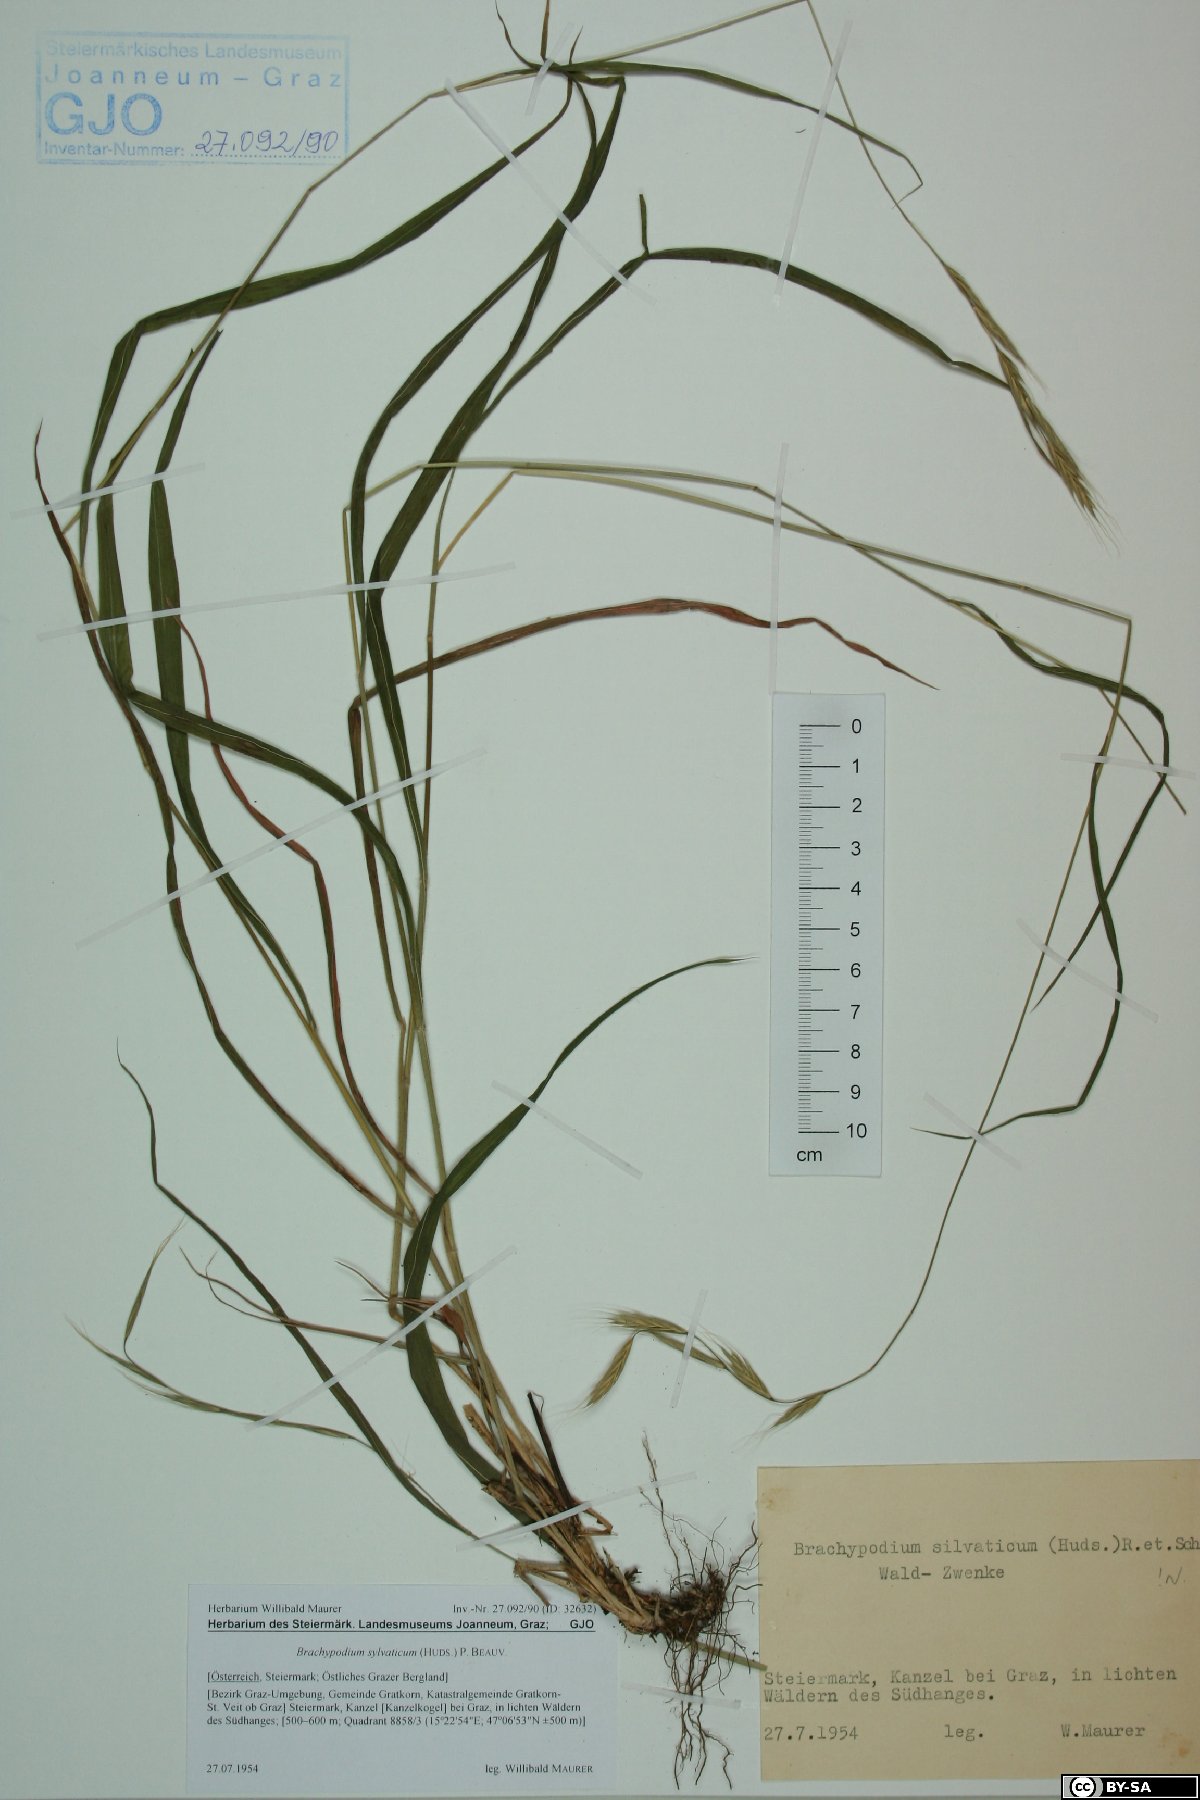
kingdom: Plantae
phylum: Tracheophyta
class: Liliopsida
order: Poales
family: Poaceae
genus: Brachypodium
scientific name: Brachypodium sylvaticum
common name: False-brome
